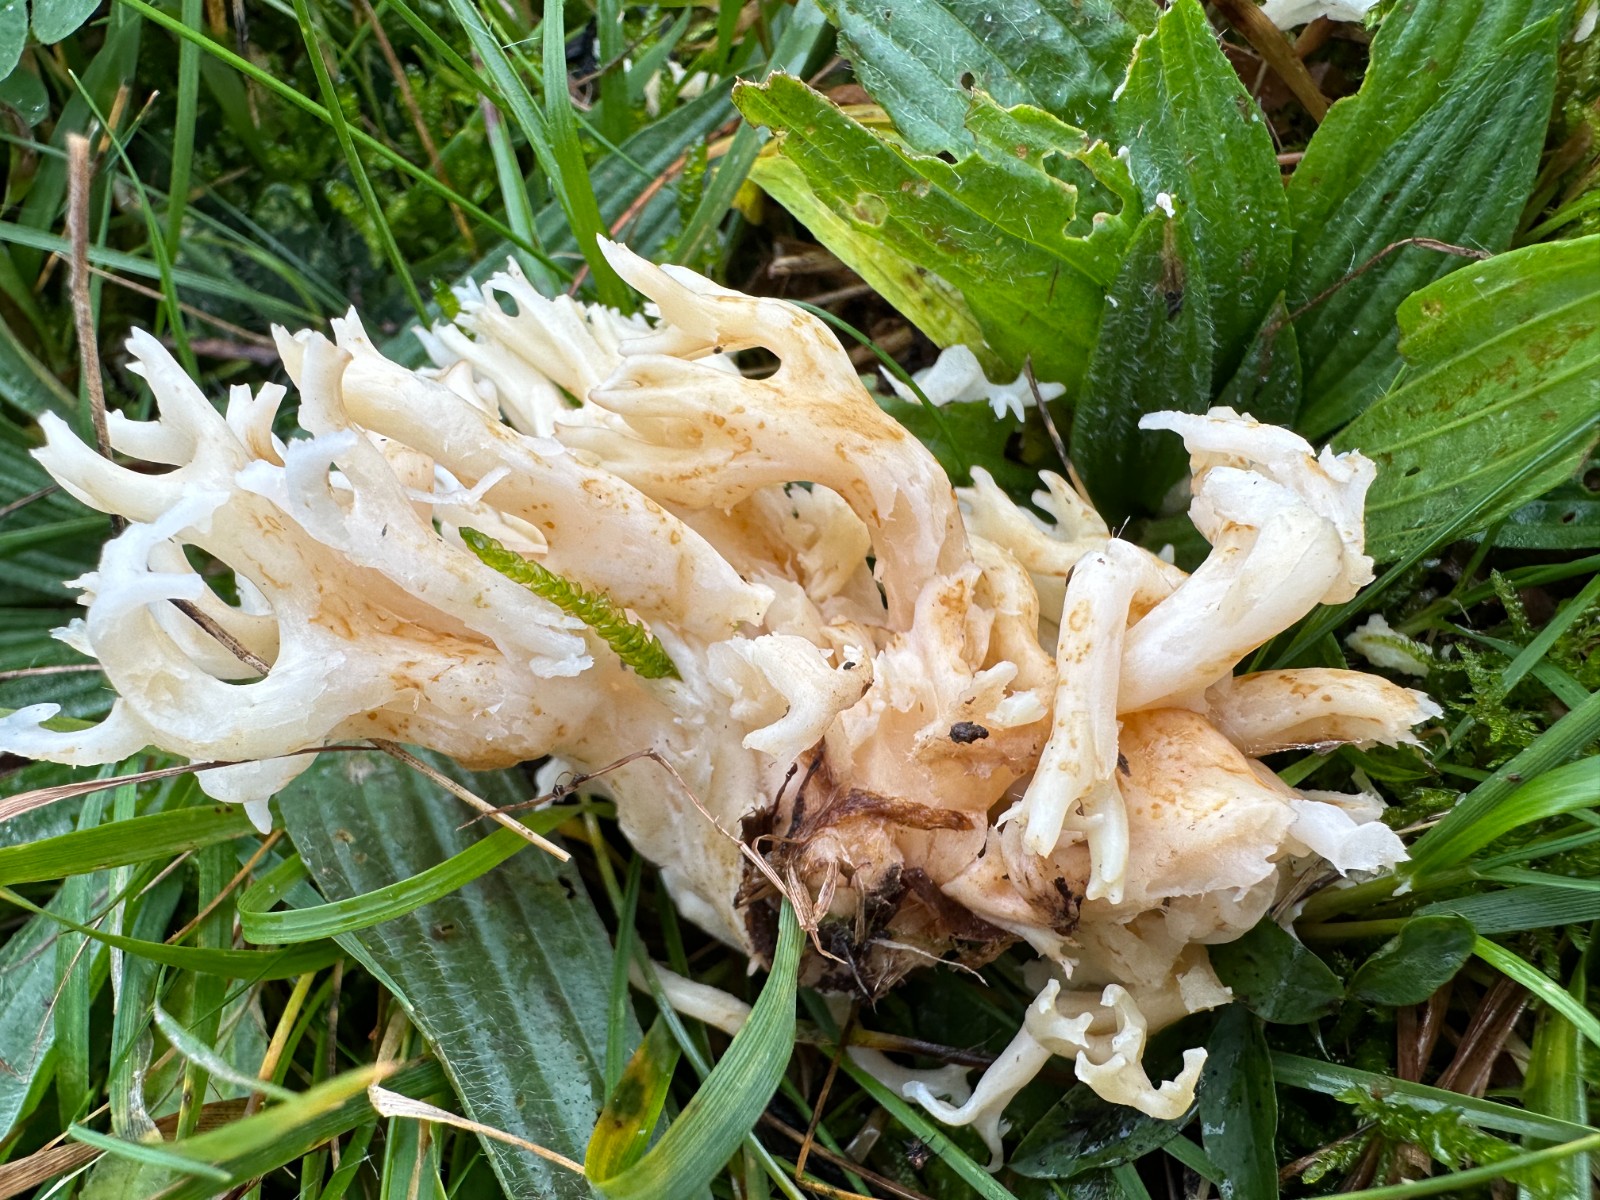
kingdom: Fungi
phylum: Basidiomycota
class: Agaricomycetes
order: Agaricales
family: Clavariaceae
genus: Ramariopsis
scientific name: Ramariopsis robusta
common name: tykgrenet køllesvamp
